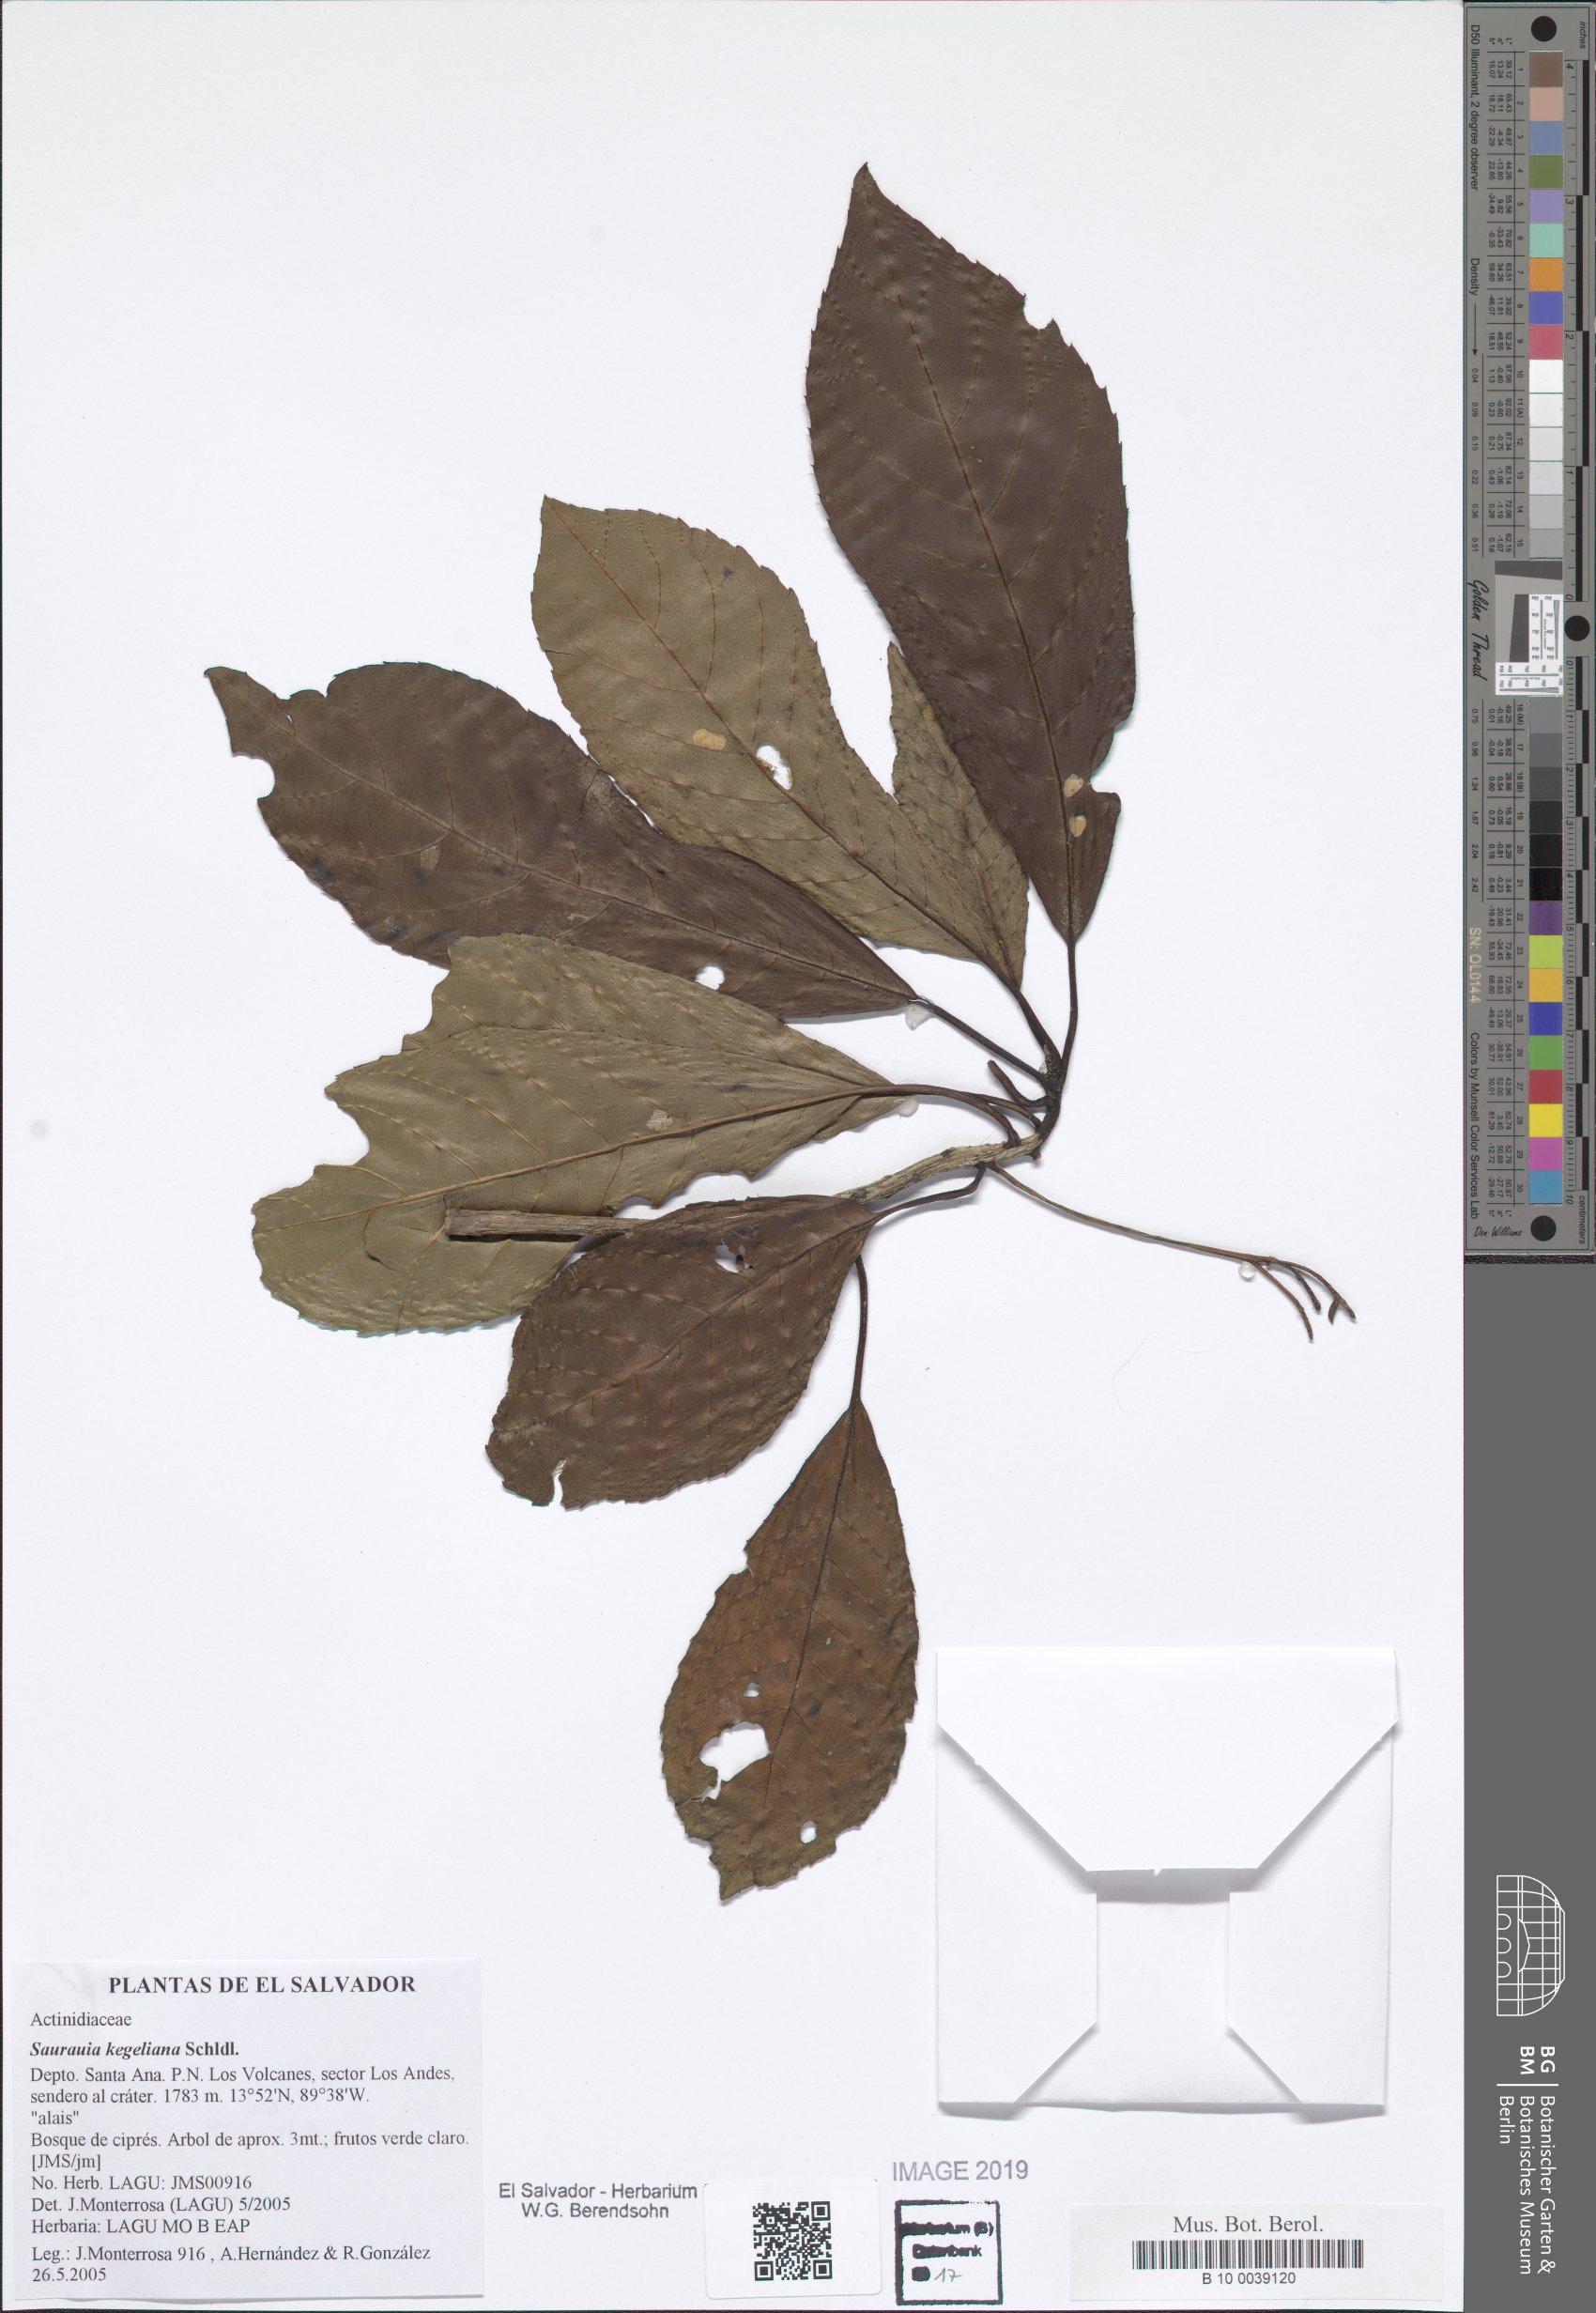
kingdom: Plantae
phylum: Tracheophyta
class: Magnoliopsida
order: Ericales
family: Actinidiaceae
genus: Saurauia
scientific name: Saurauia kegeliana
